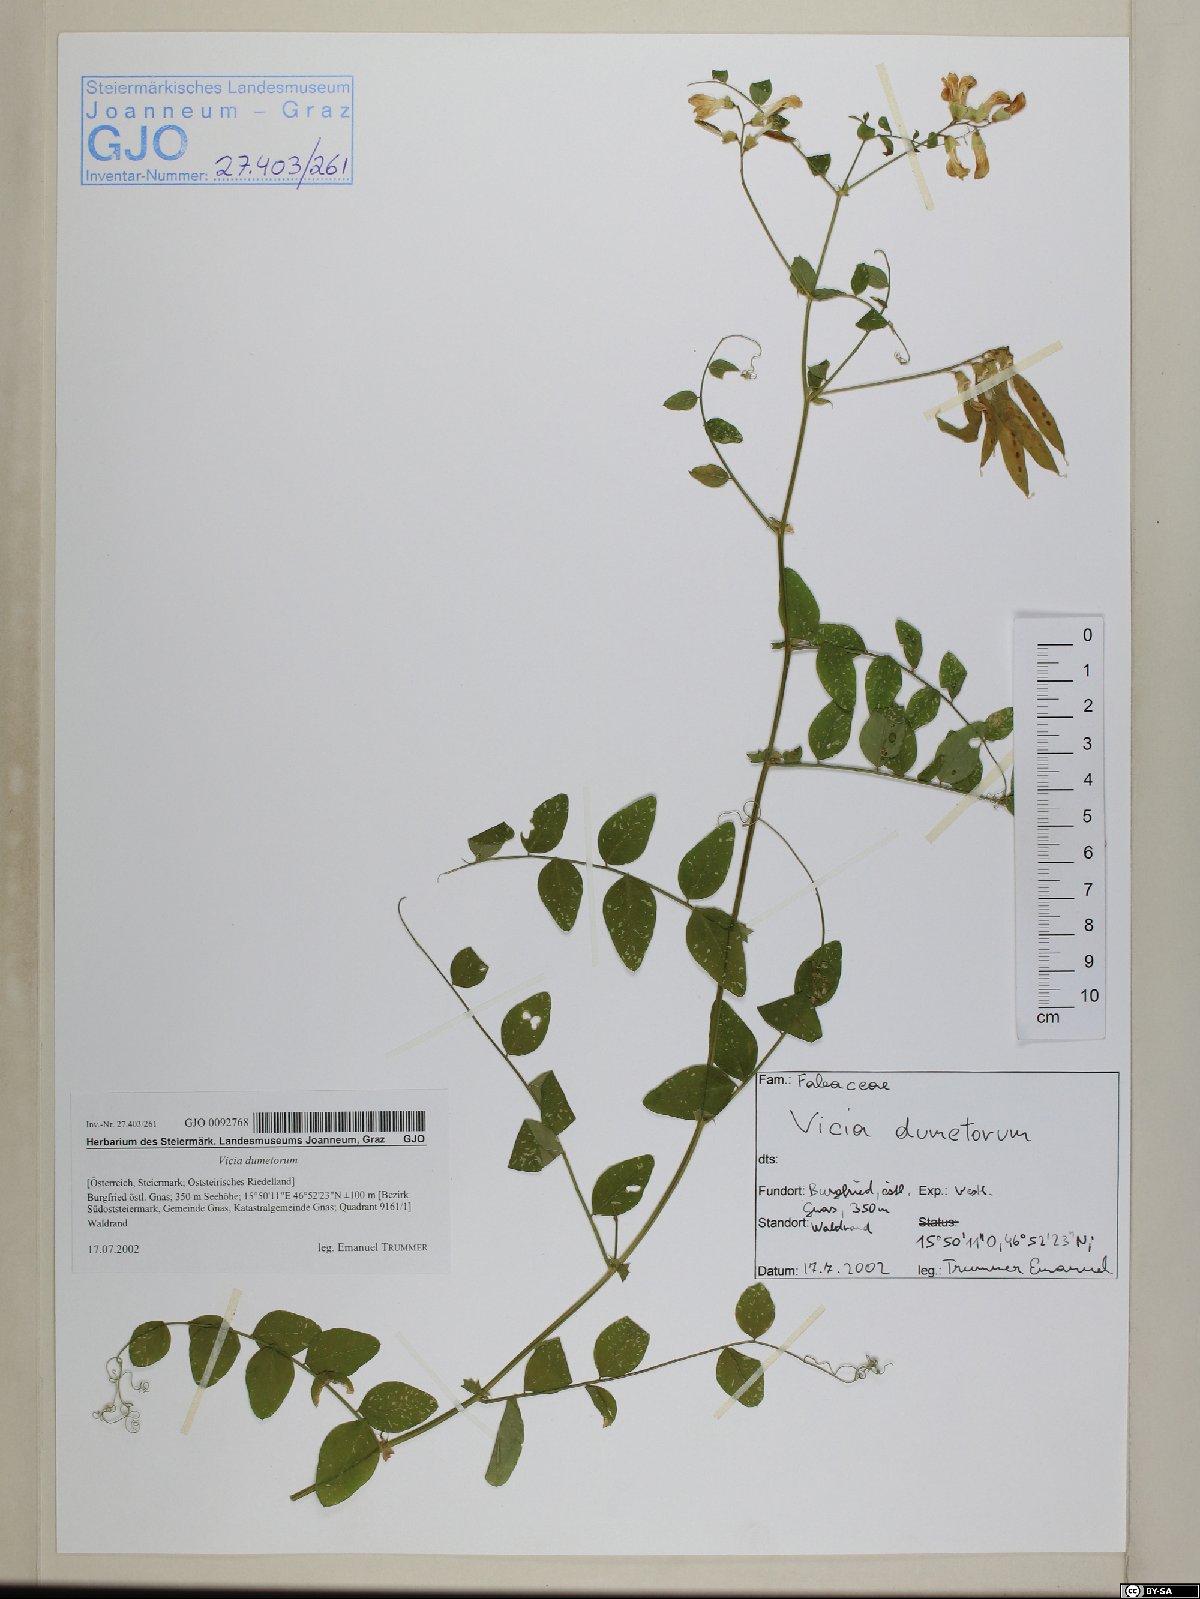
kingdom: Plantae
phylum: Tracheophyta
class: Magnoliopsida
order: Fabales
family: Fabaceae
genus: Vicia
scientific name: Vicia dumetorum
